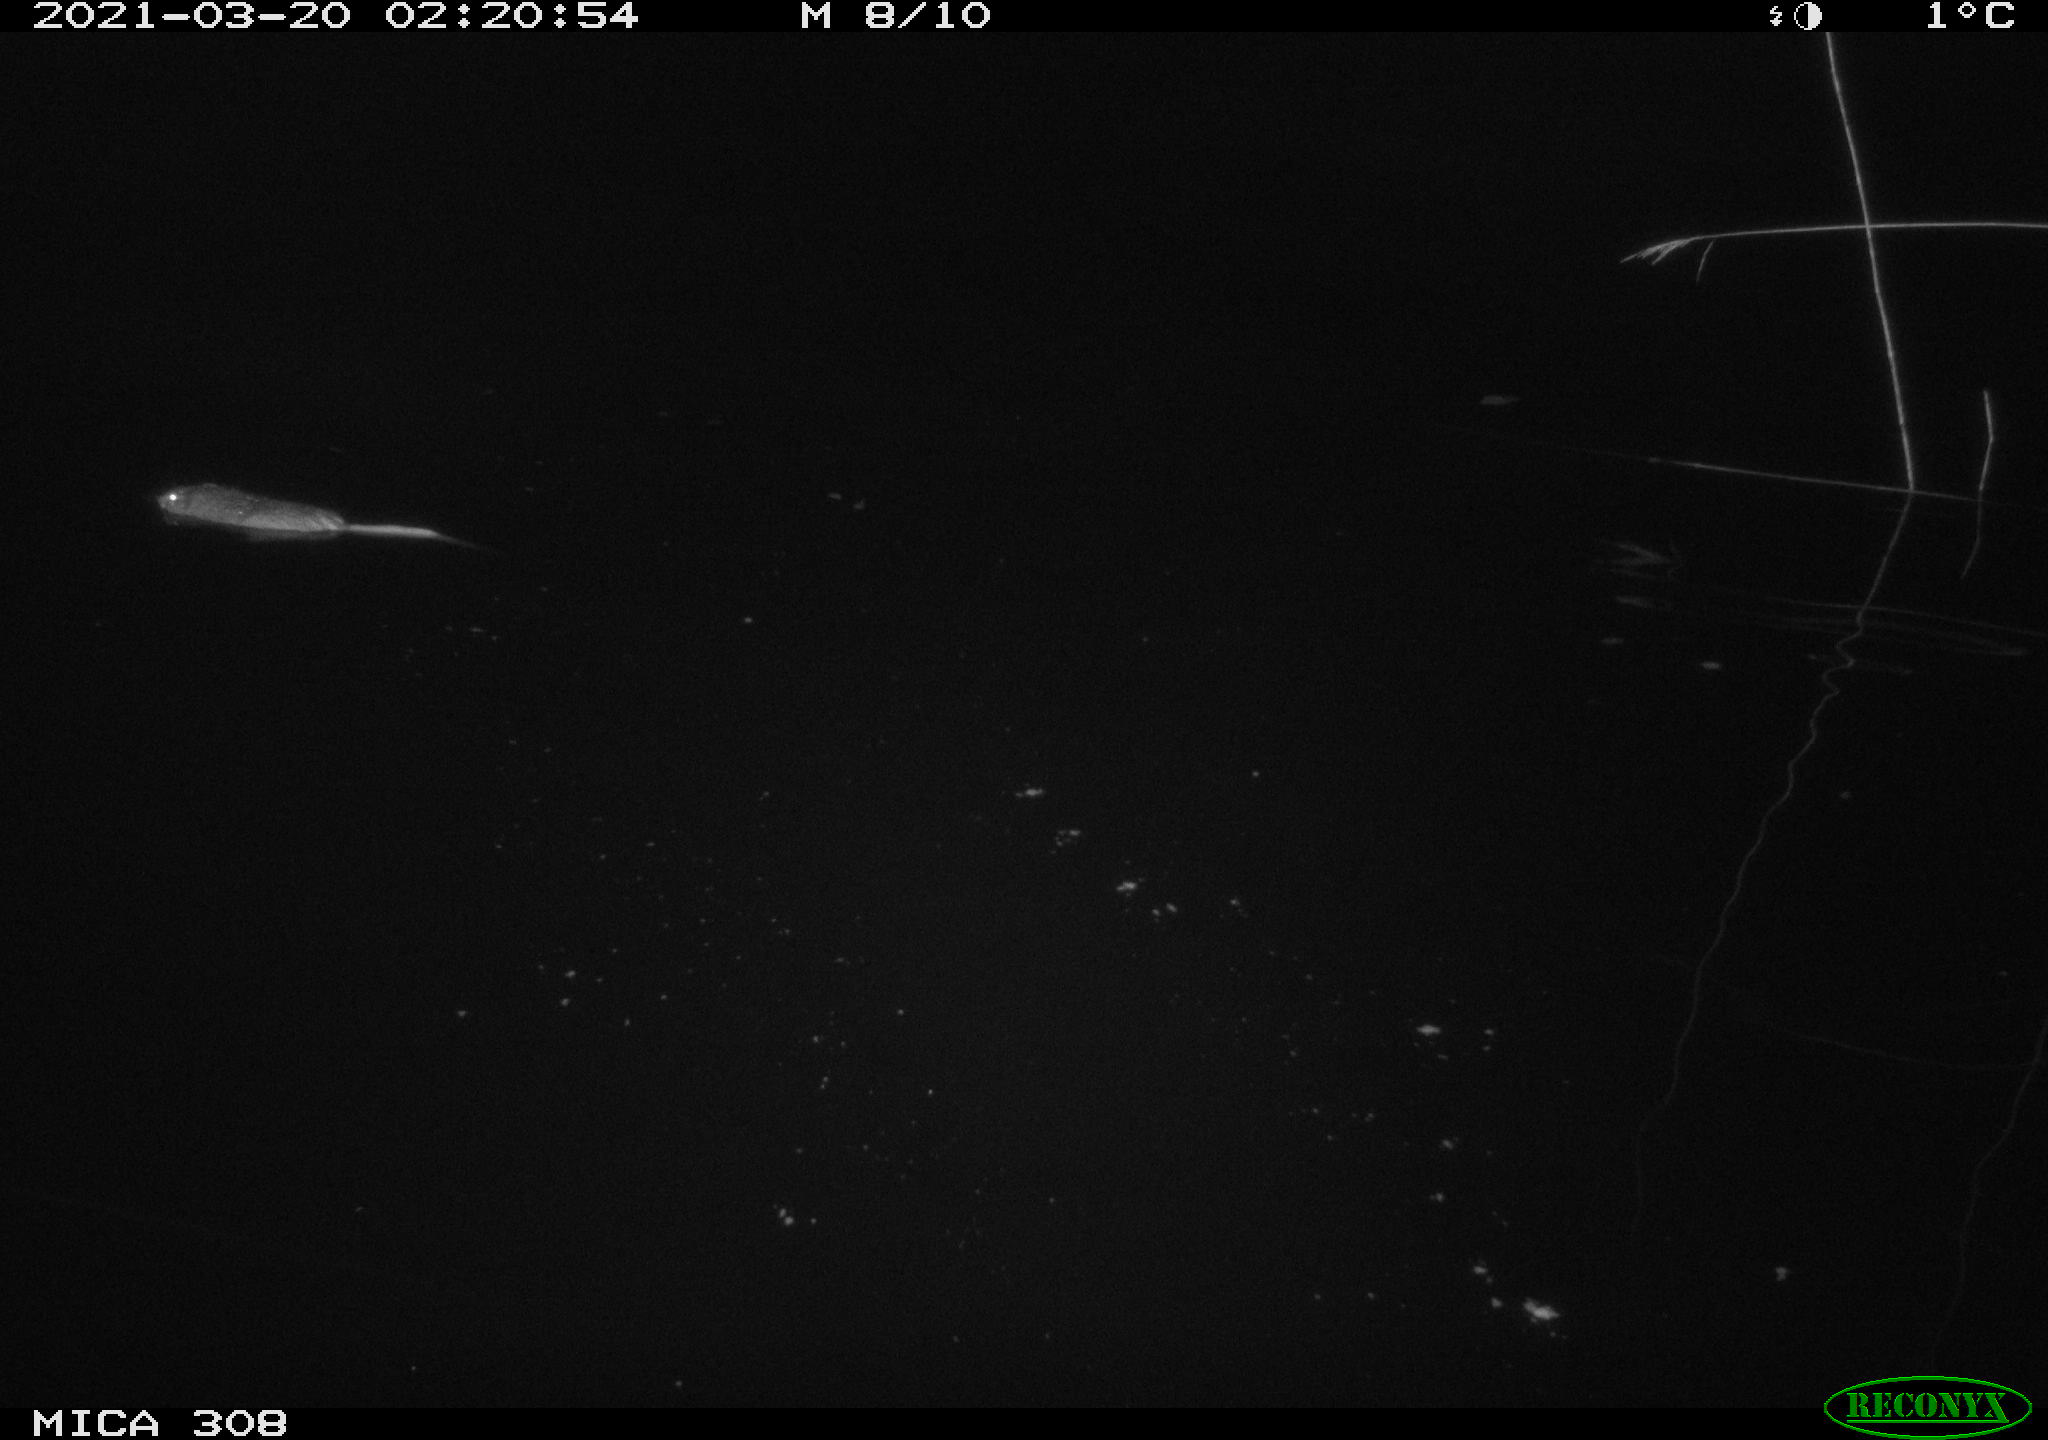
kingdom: Animalia
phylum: Chordata
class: Mammalia
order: Rodentia
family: Cricetidae
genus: Ondatra
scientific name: Ondatra zibethicus
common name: Muskrat
